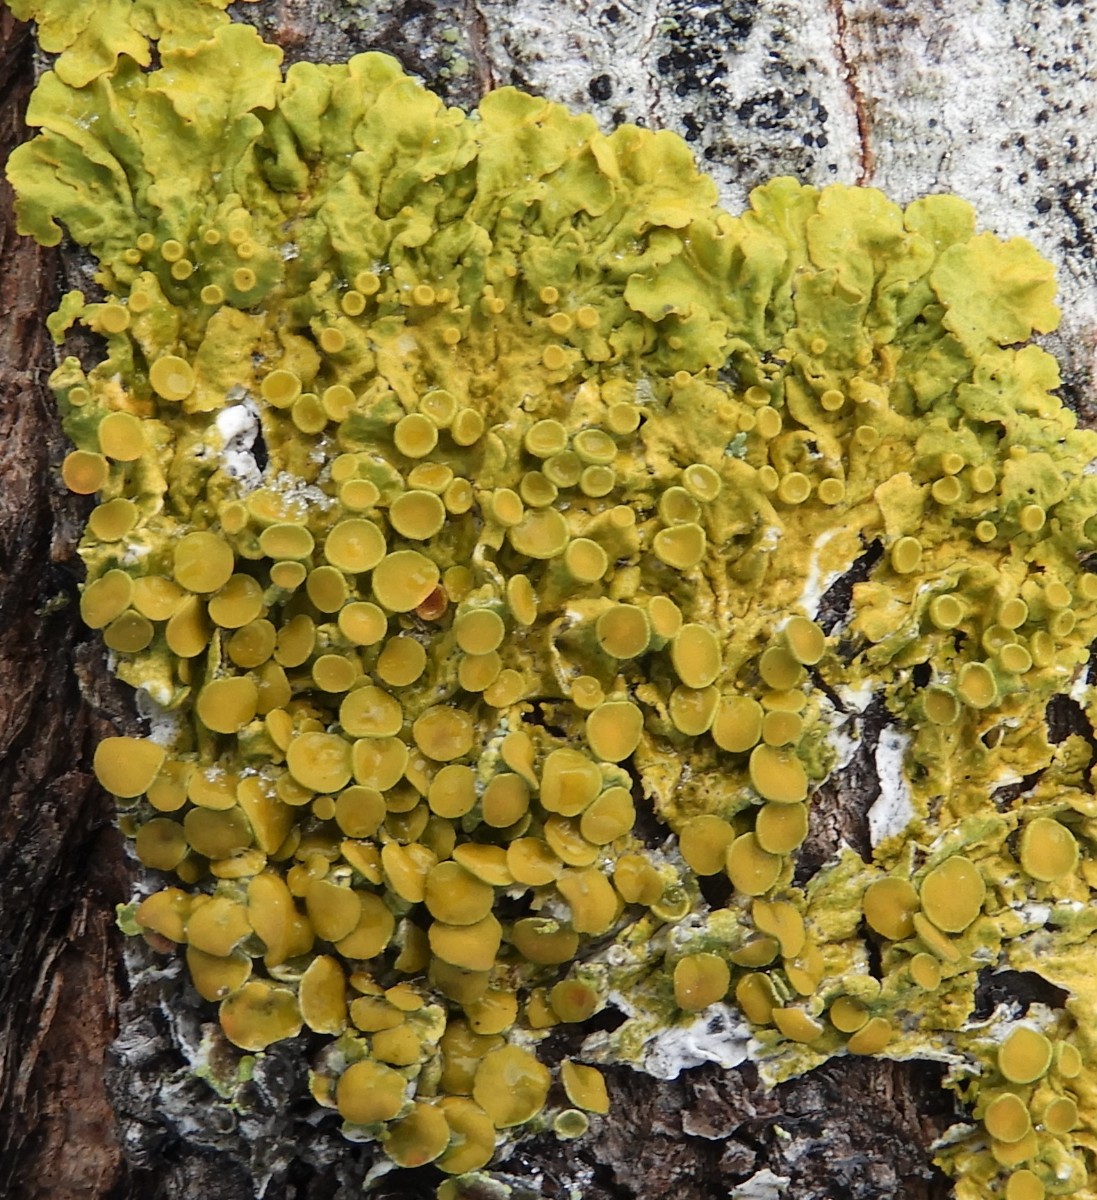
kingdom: Fungi
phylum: Ascomycota
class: Lecanoromycetes
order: Teloschistales
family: Teloschistaceae
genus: Xanthoria
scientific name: Xanthoria parietina
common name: almindelig væggelav
